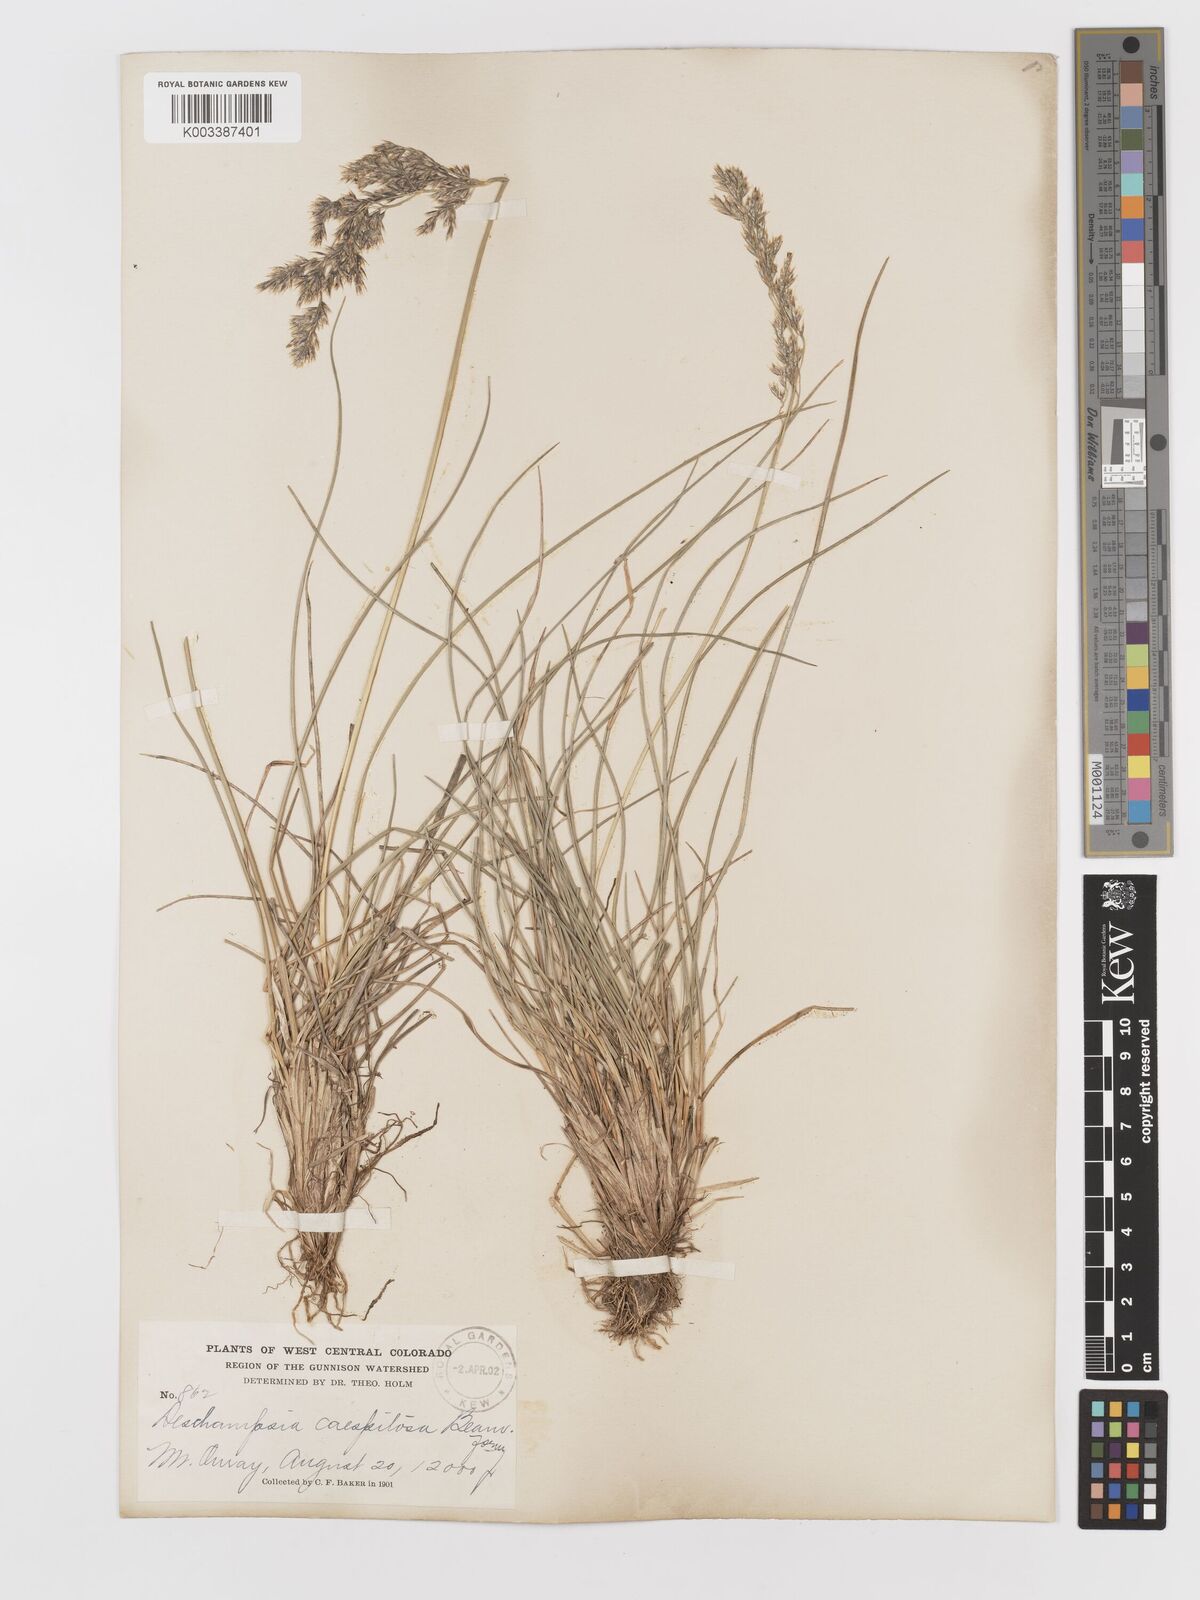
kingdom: Plantae
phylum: Tracheophyta
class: Liliopsida
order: Poales
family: Poaceae
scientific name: Poaceae
